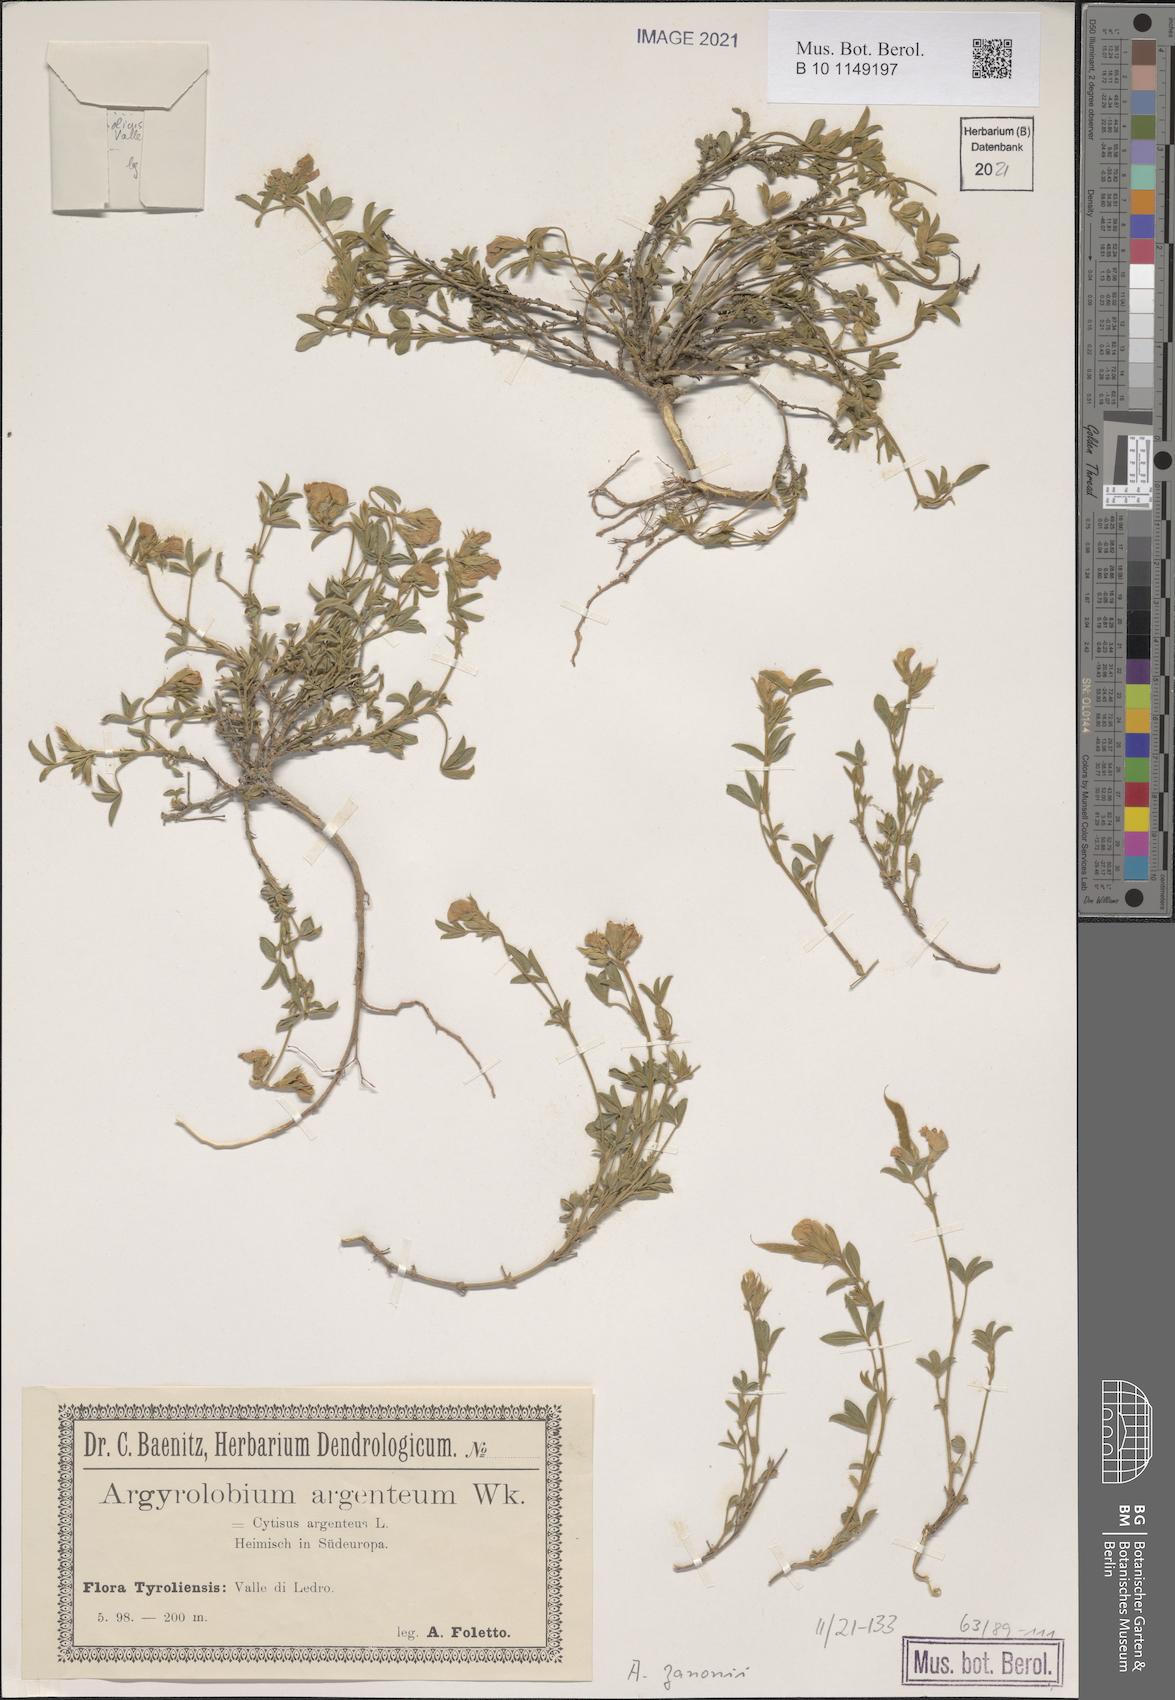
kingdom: Plantae
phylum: Tracheophyta
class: Magnoliopsida
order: Fabales
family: Fabaceae
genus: Argyrolobium
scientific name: Argyrolobium zanonii
